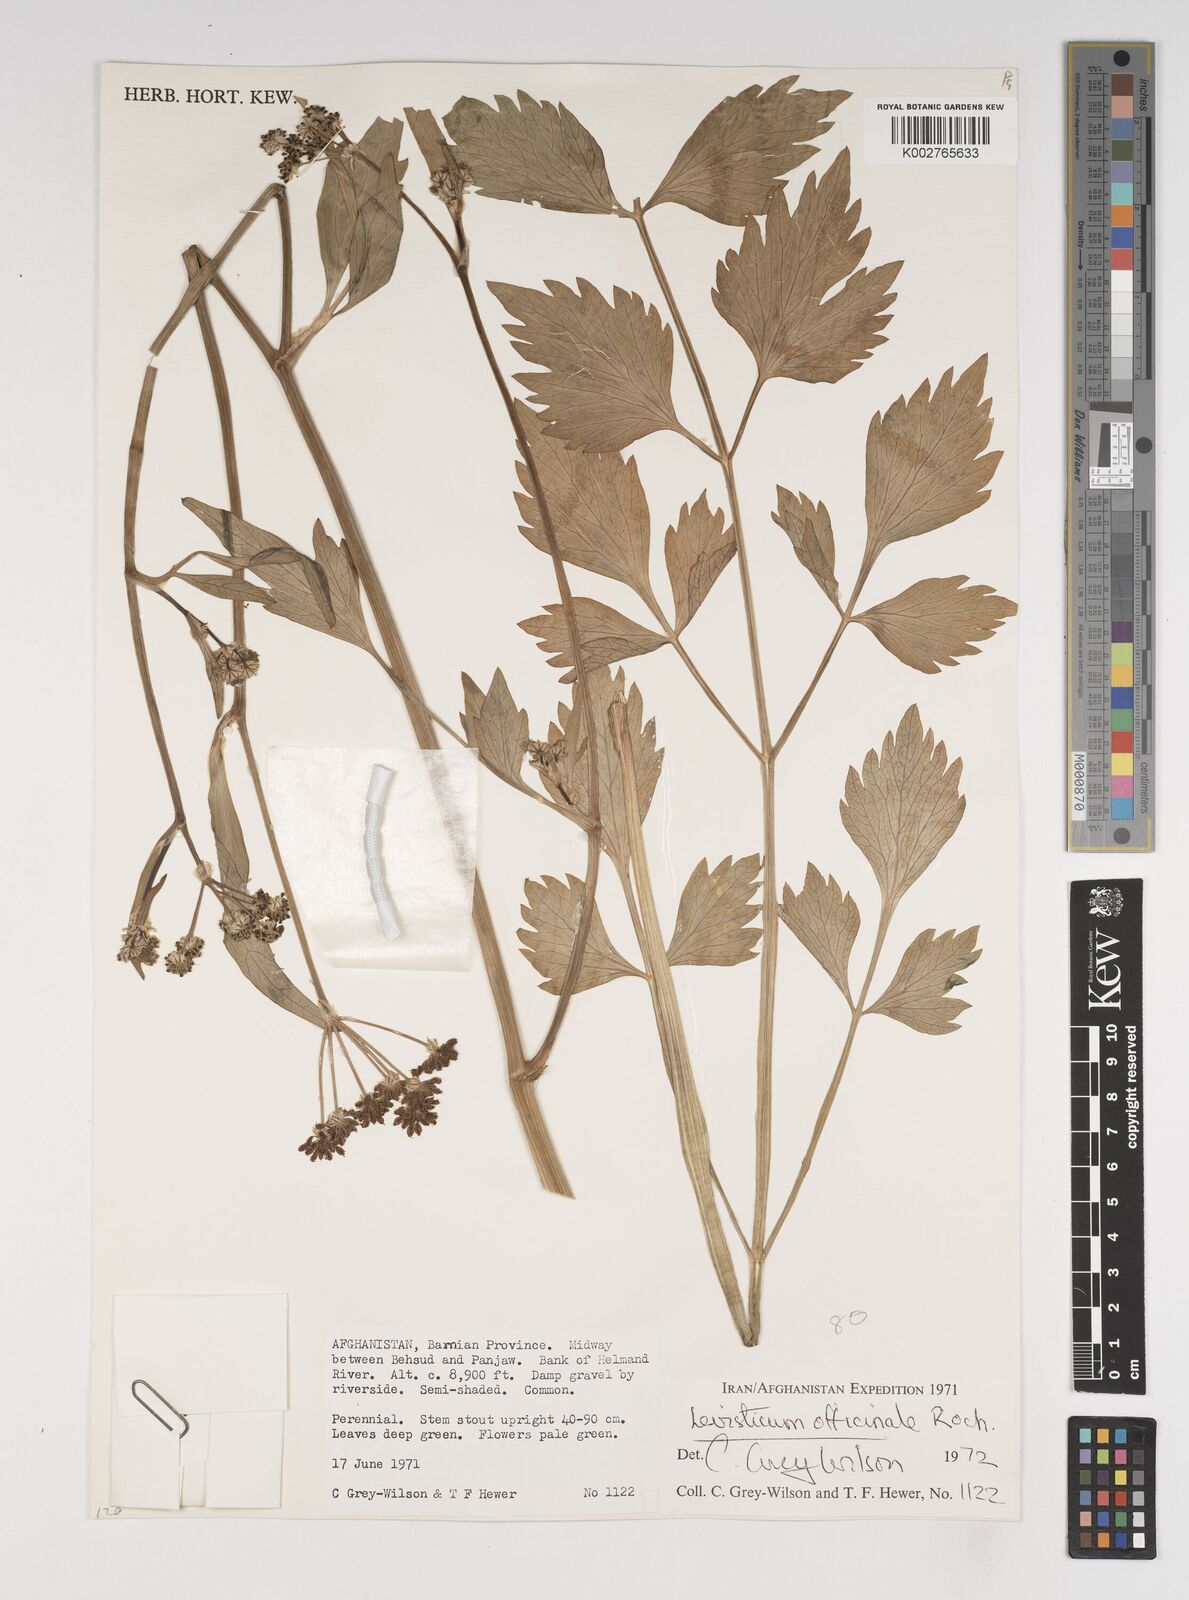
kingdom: Plantae
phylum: Tracheophyta
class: Magnoliopsida
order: Apiales
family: Apiaceae
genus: Levisticum
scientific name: Levisticum officinale
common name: Lovage
